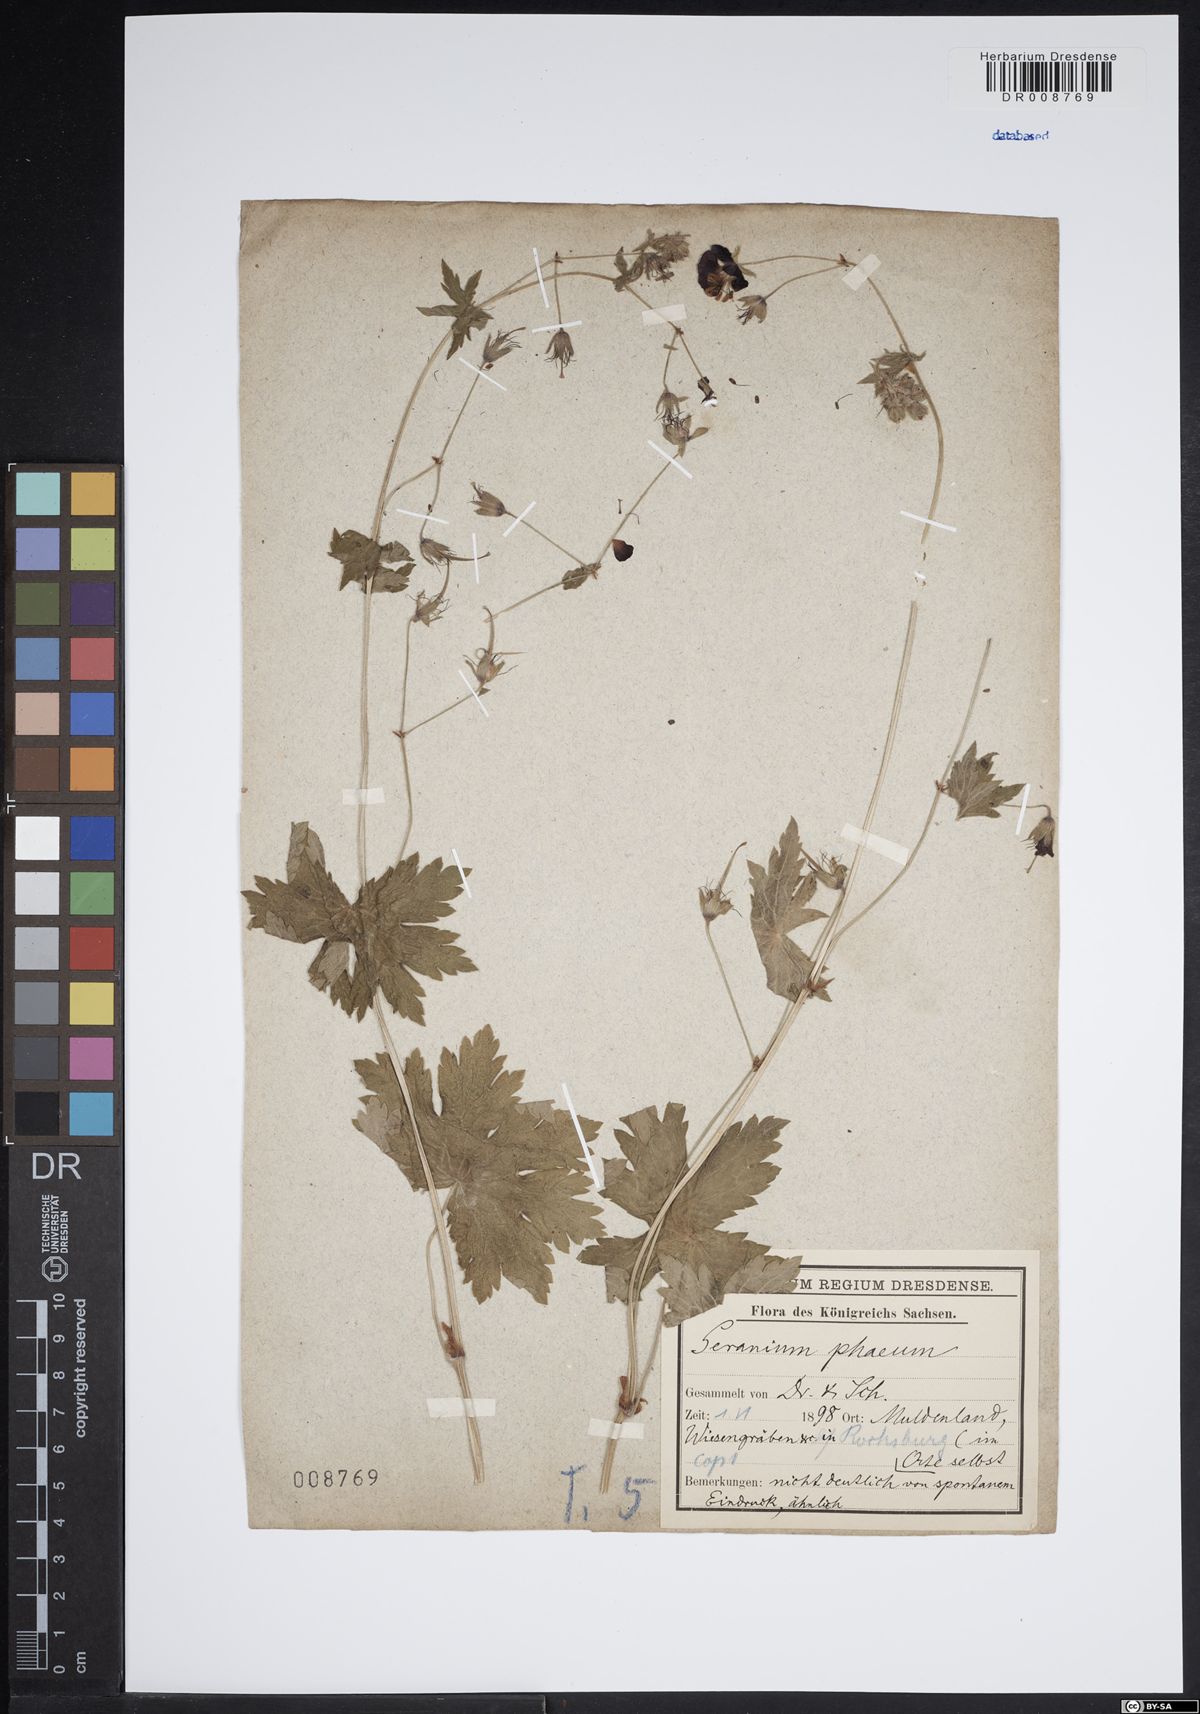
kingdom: Plantae
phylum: Tracheophyta
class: Magnoliopsida
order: Geraniales
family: Geraniaceae
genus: Geranium
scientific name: Geranium phaeum
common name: Dusky crane's-bill
